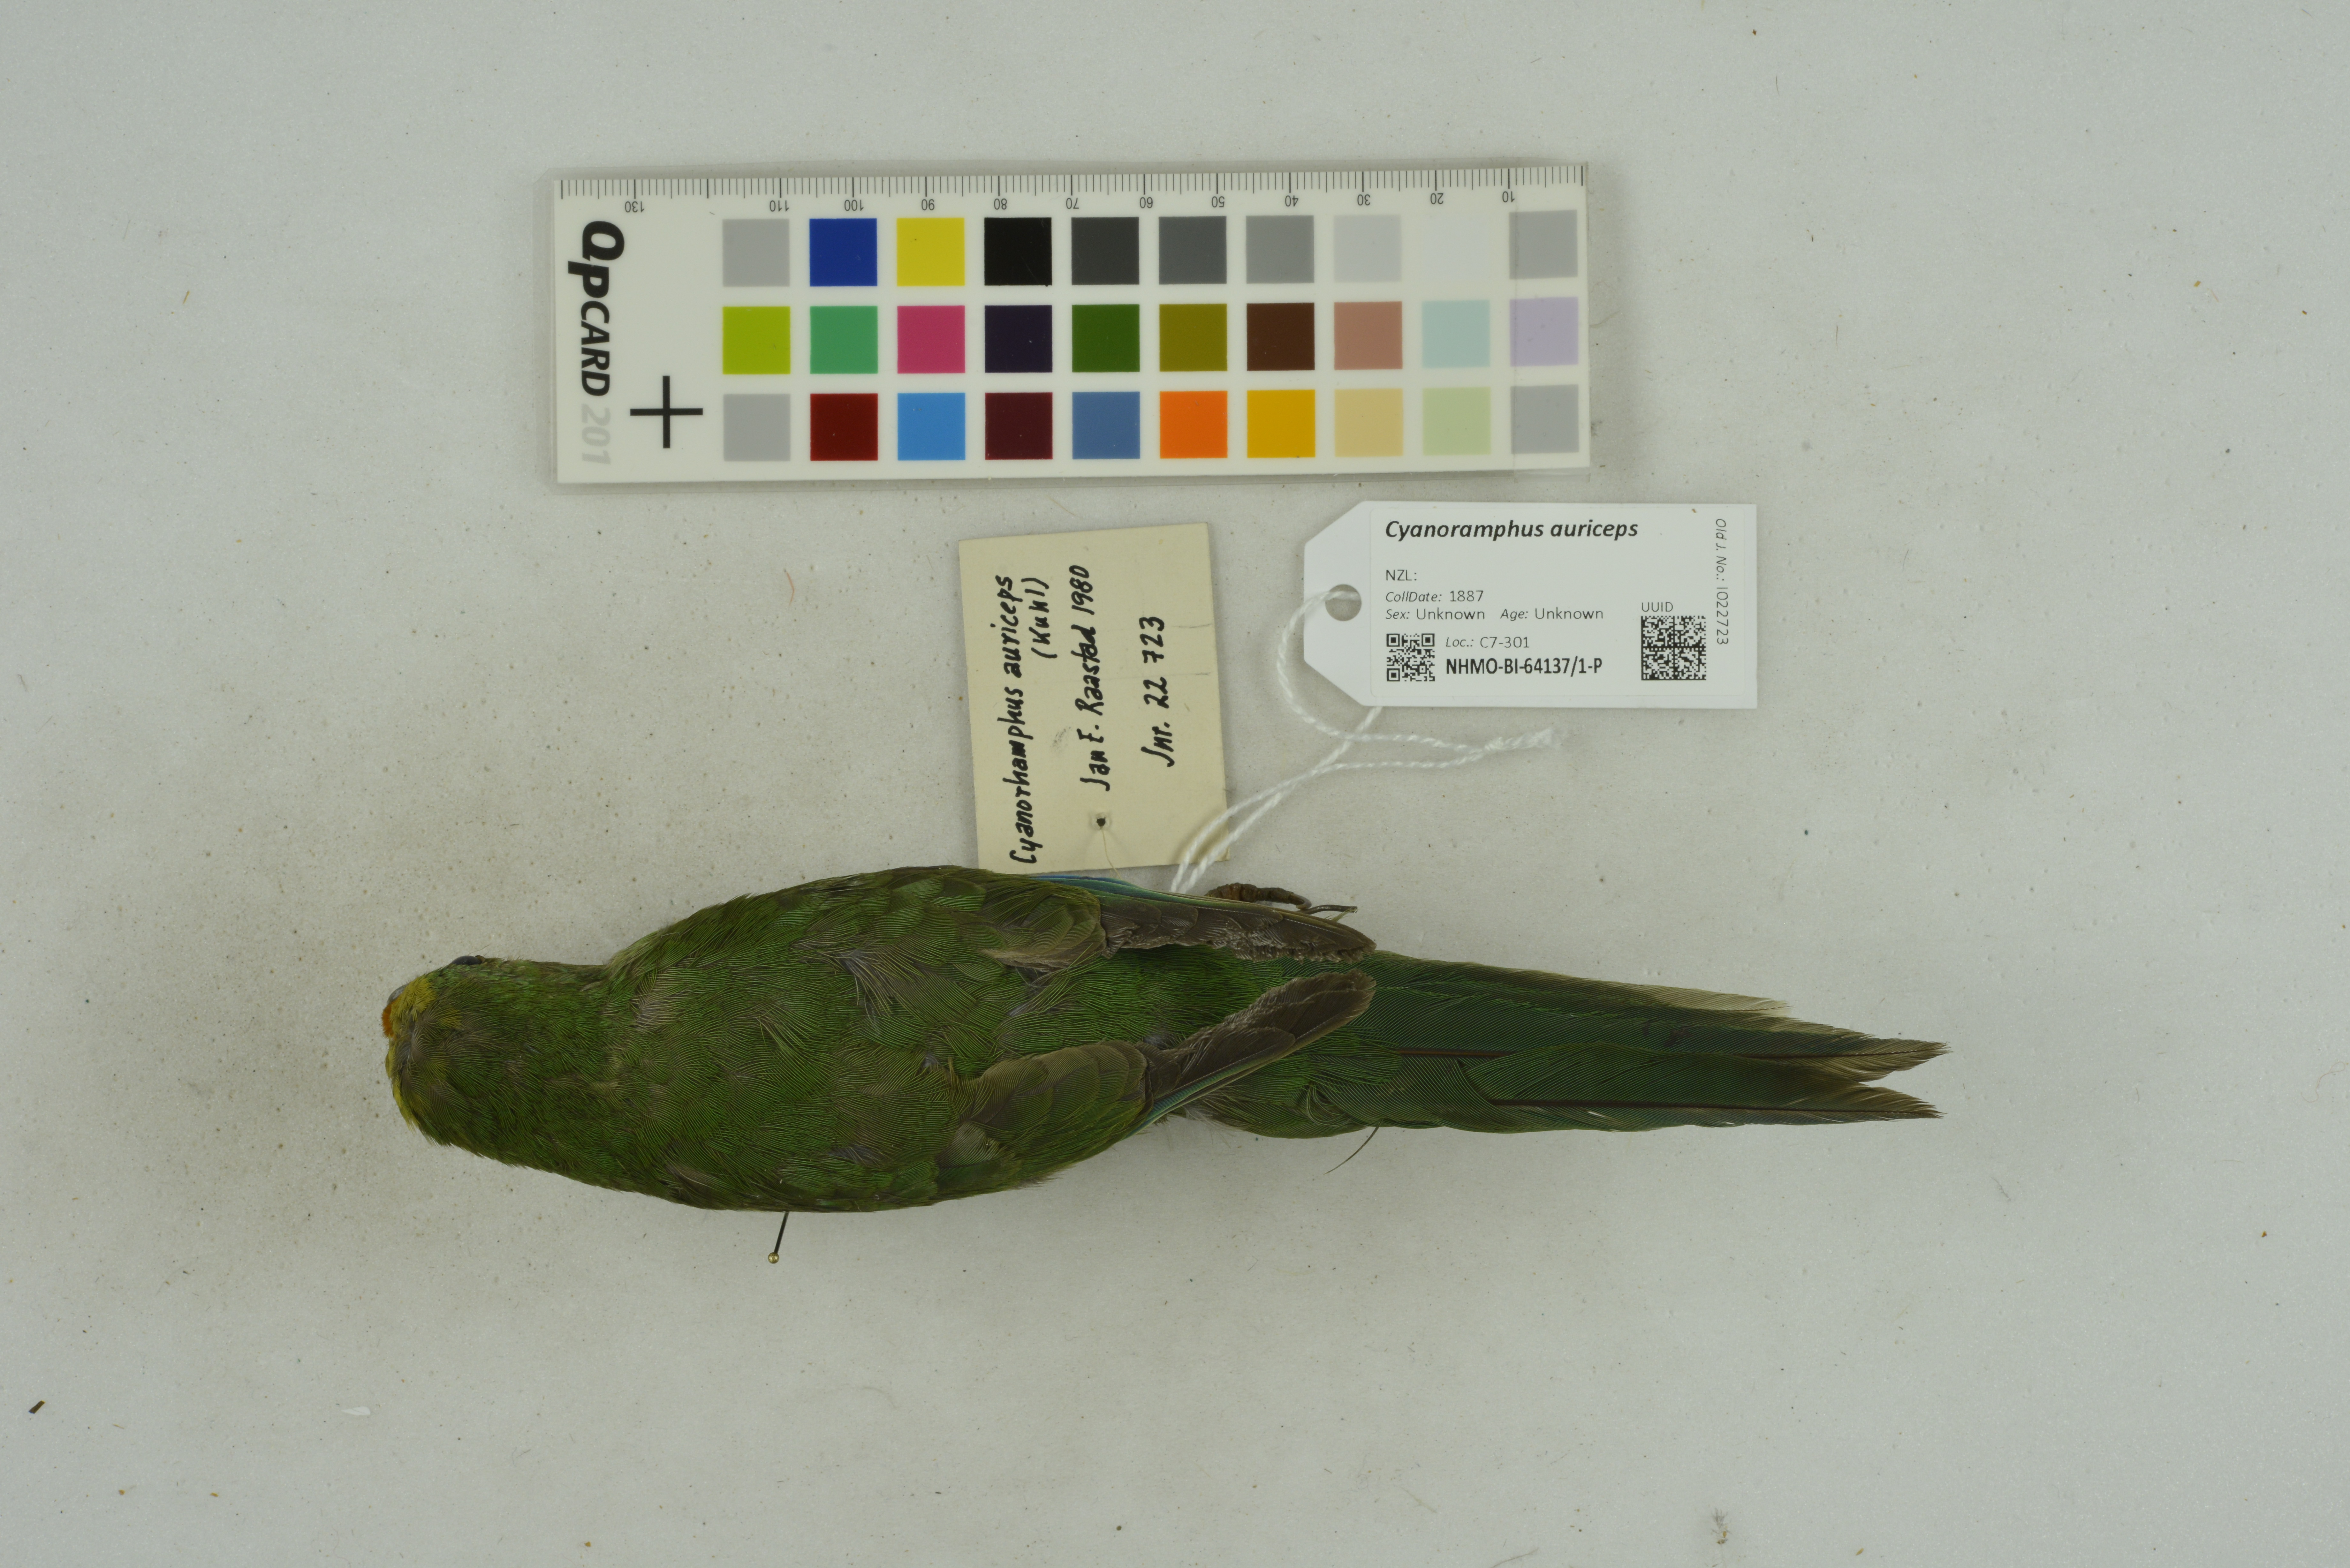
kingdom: Animalia
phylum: Chordata
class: Aves
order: Psittaciformes
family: Psittacidae
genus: Cyanoramphus
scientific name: Cyanoramphus auriceps
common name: Yellow-crowned parakeet
